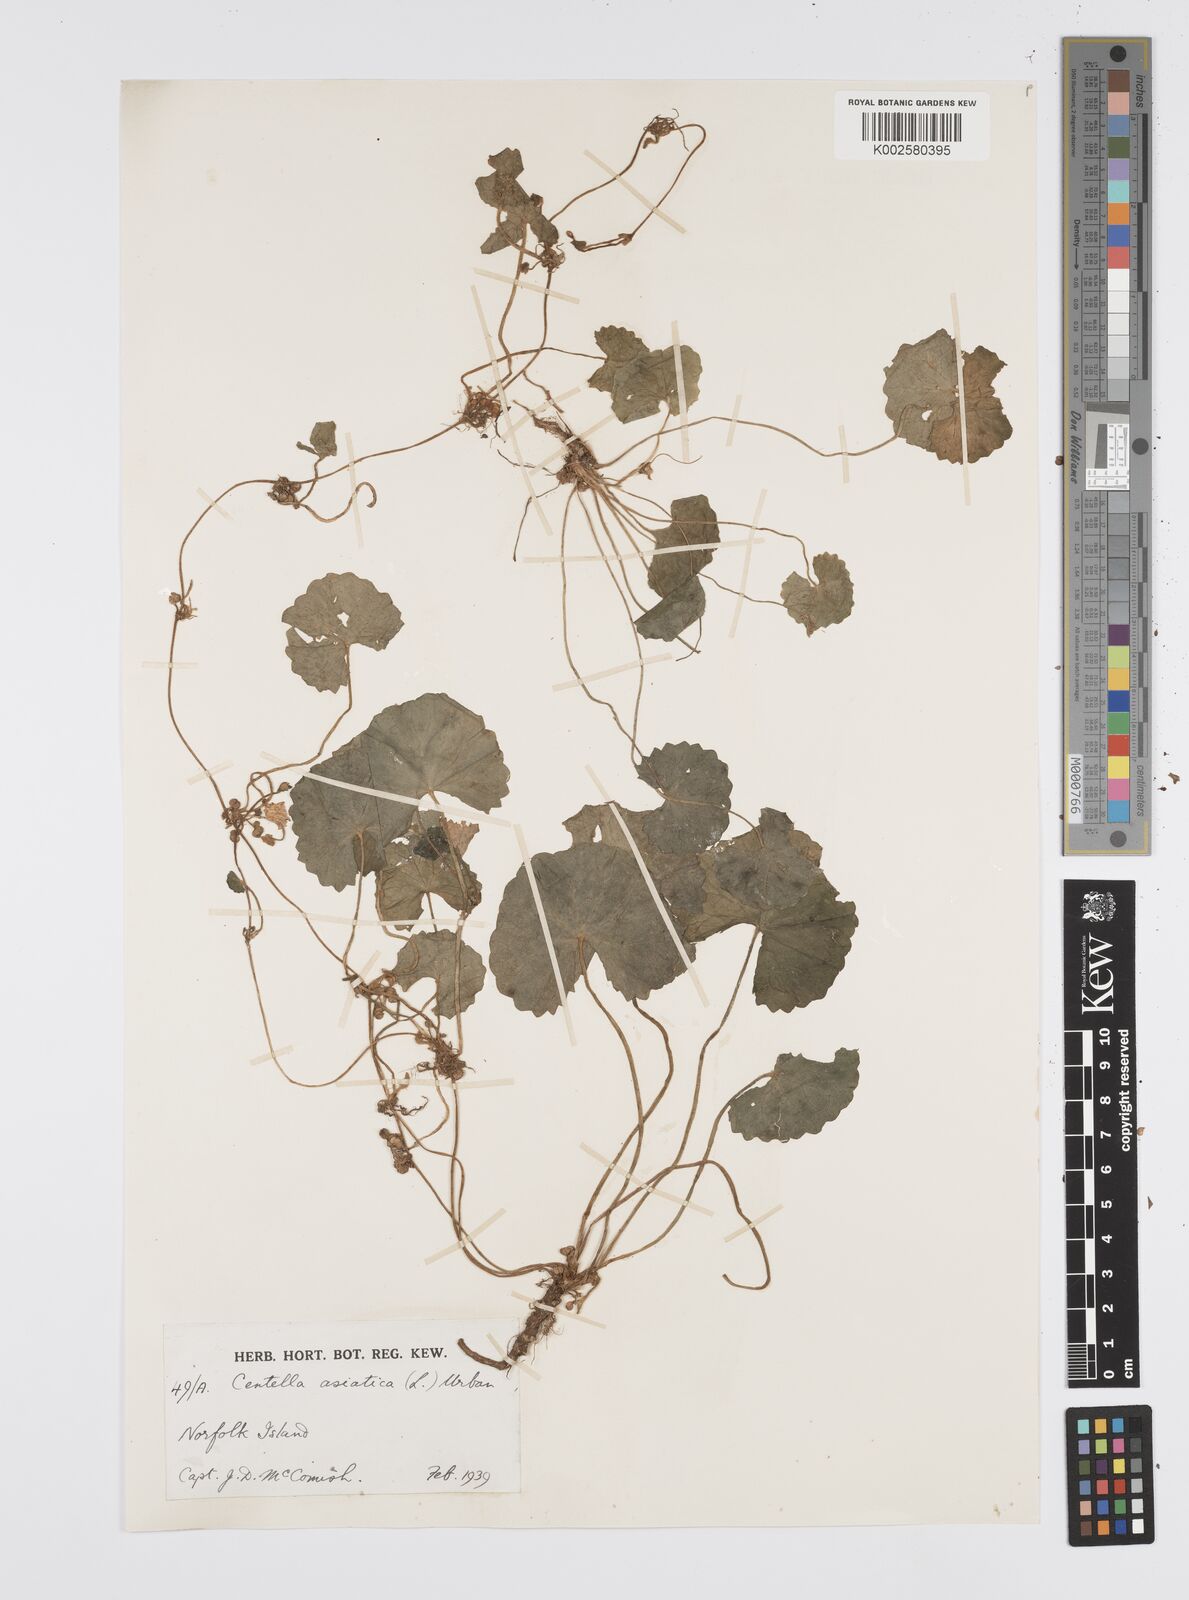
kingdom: Plantae
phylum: Tracheophyta
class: Magnoliopsida
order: Apiales
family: Apiaceae
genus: Centella
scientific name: Centella asiatica
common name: Spadeleaf
